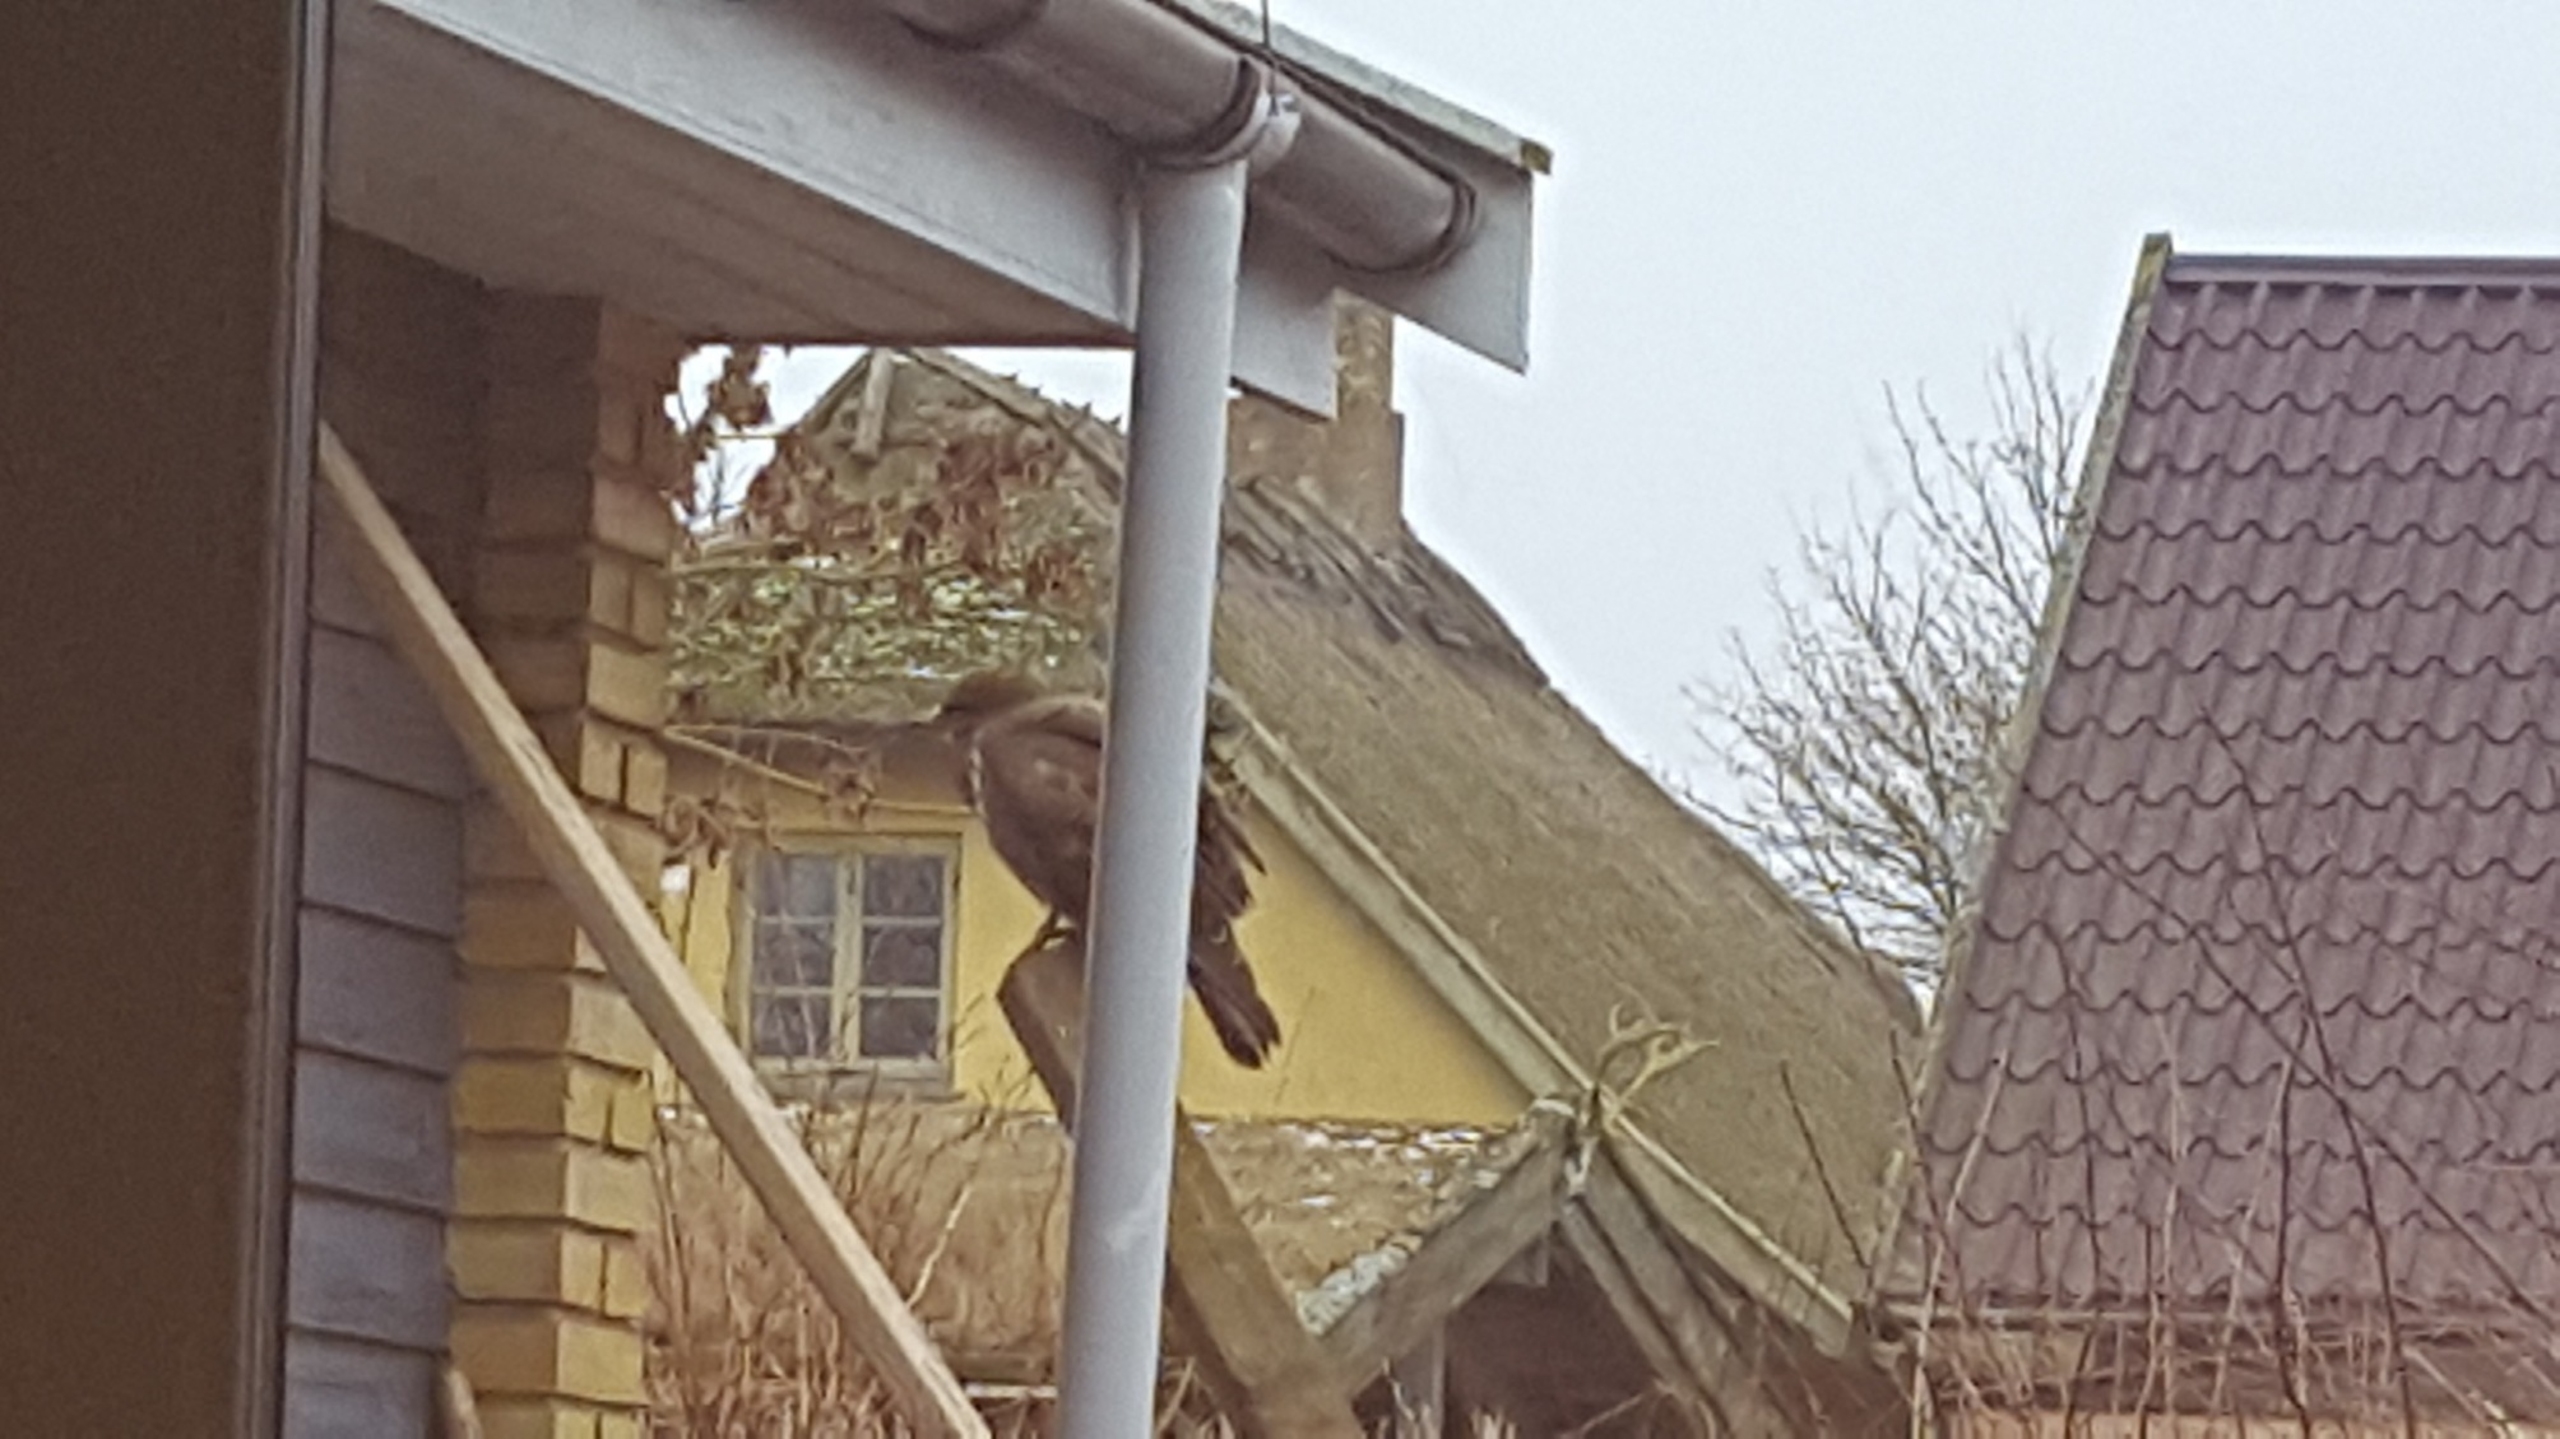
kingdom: Animalia
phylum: Chordata
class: Aves
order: Accipitriformes
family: Accipitridae
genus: Buteo
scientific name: Buteo buteo
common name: Musvåge
